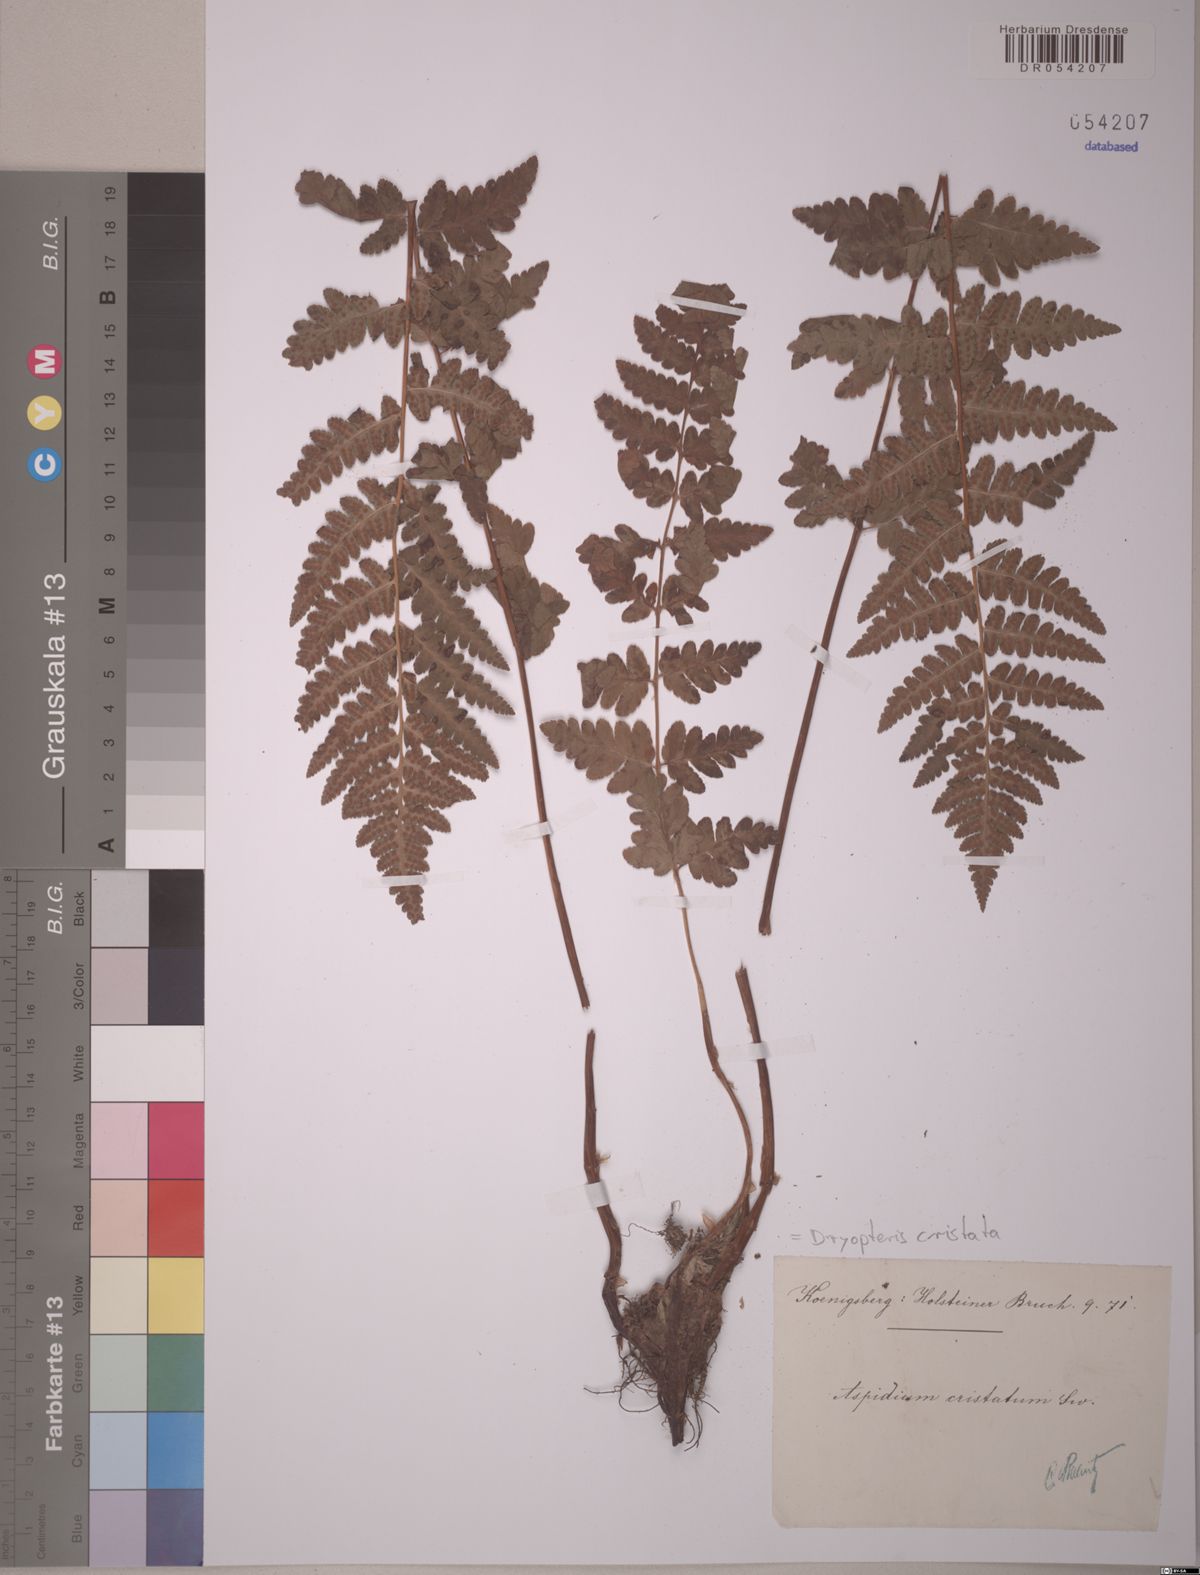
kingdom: Plantae
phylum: Tracheophyta
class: Polypodiopsida
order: Polypodiales
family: Dryopteridaceae
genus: Dryopteris
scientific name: Dryopteris cristata
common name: Crested wood fern
